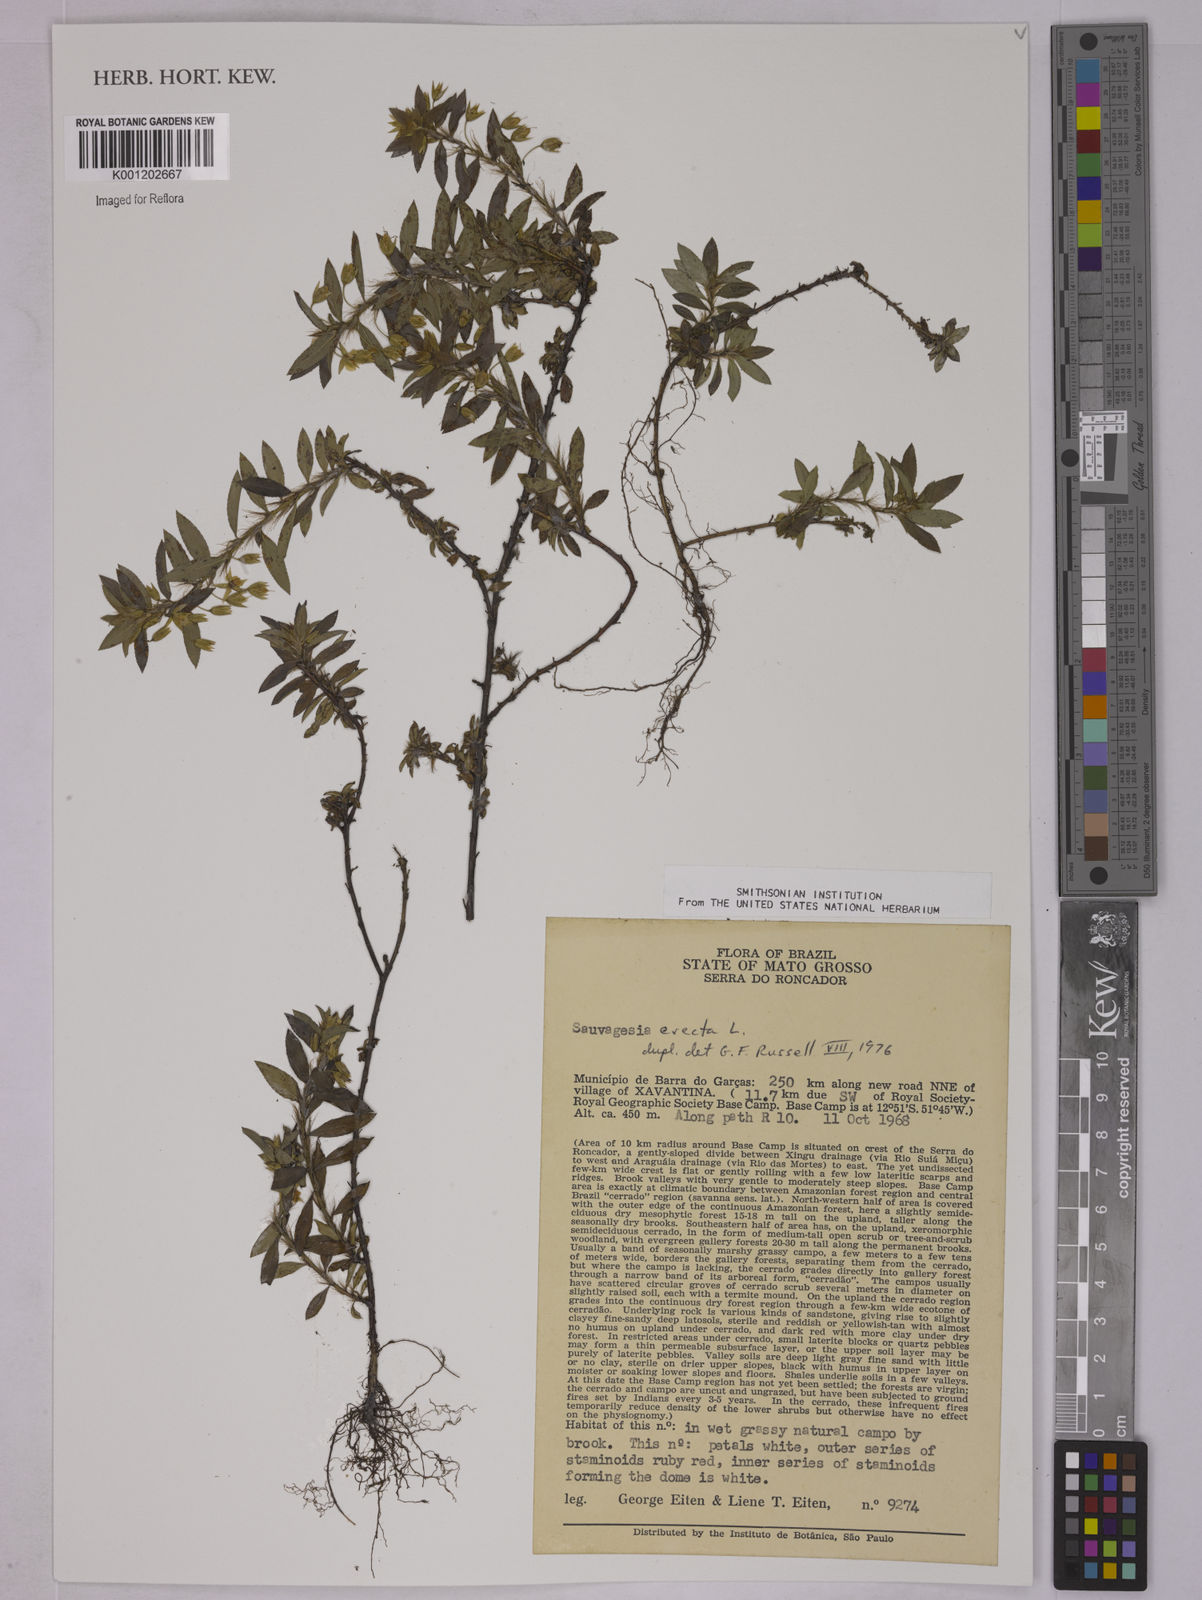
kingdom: Plantae
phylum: Tracheophyta
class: Magnoliopsida
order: Malpighiales
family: Ochnaceae
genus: Sauvagesia
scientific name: Sauvagesia erecta
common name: Creole tea
